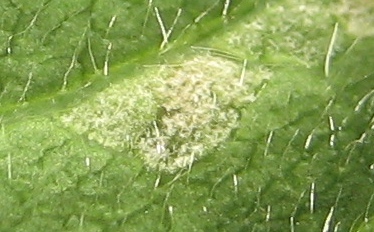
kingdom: Fungi
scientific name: Fungi
